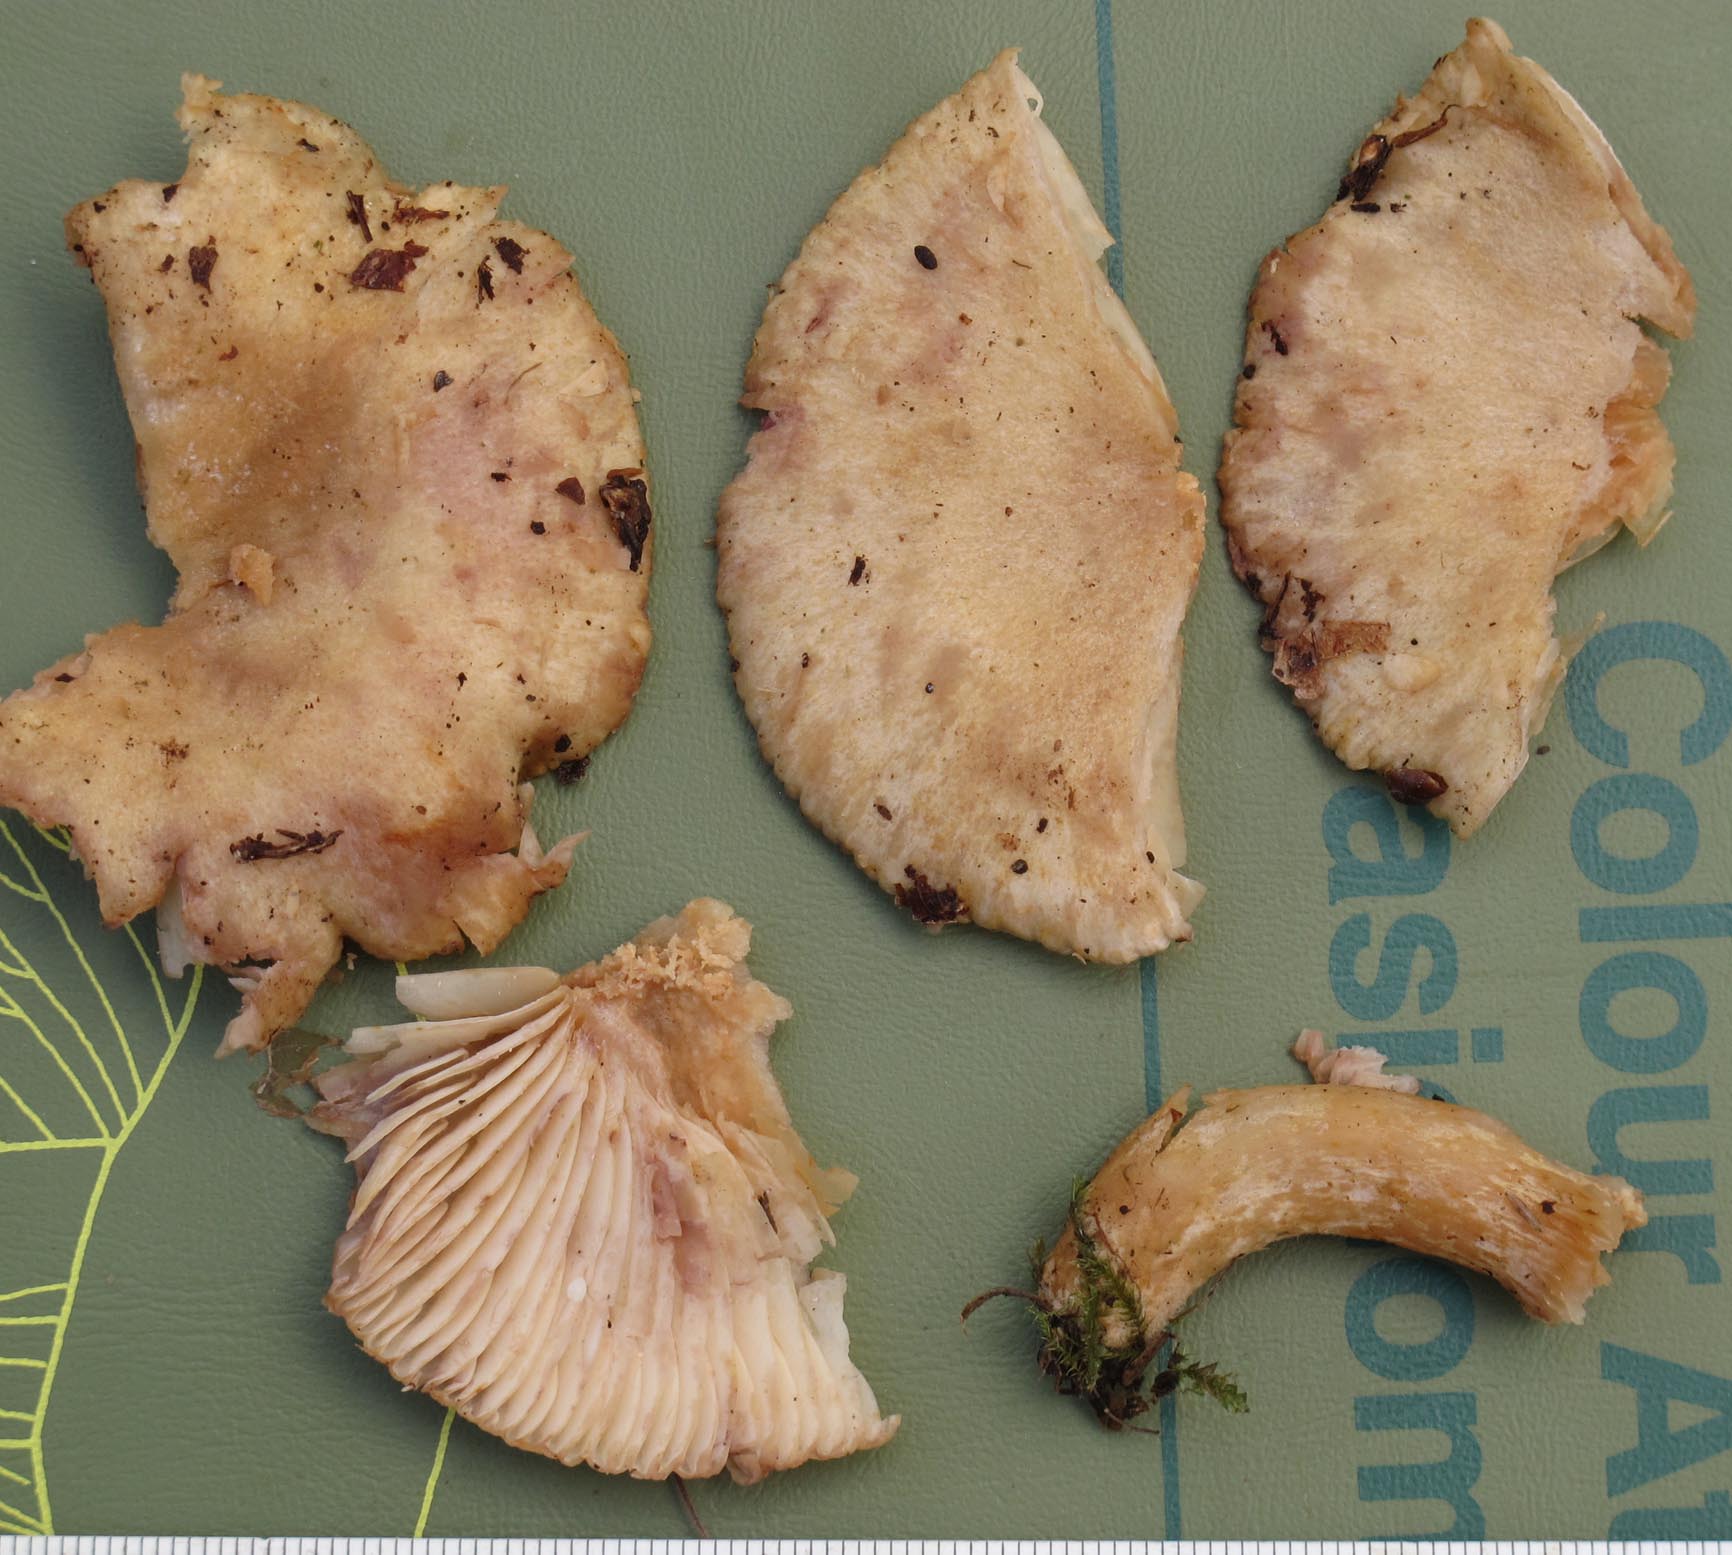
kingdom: Fungi
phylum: Basidiomycota
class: Agaricomycetes
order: Russulales
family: Russulaceae
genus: Lactarius
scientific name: Lactarius aspideus
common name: pile-mælkehat
